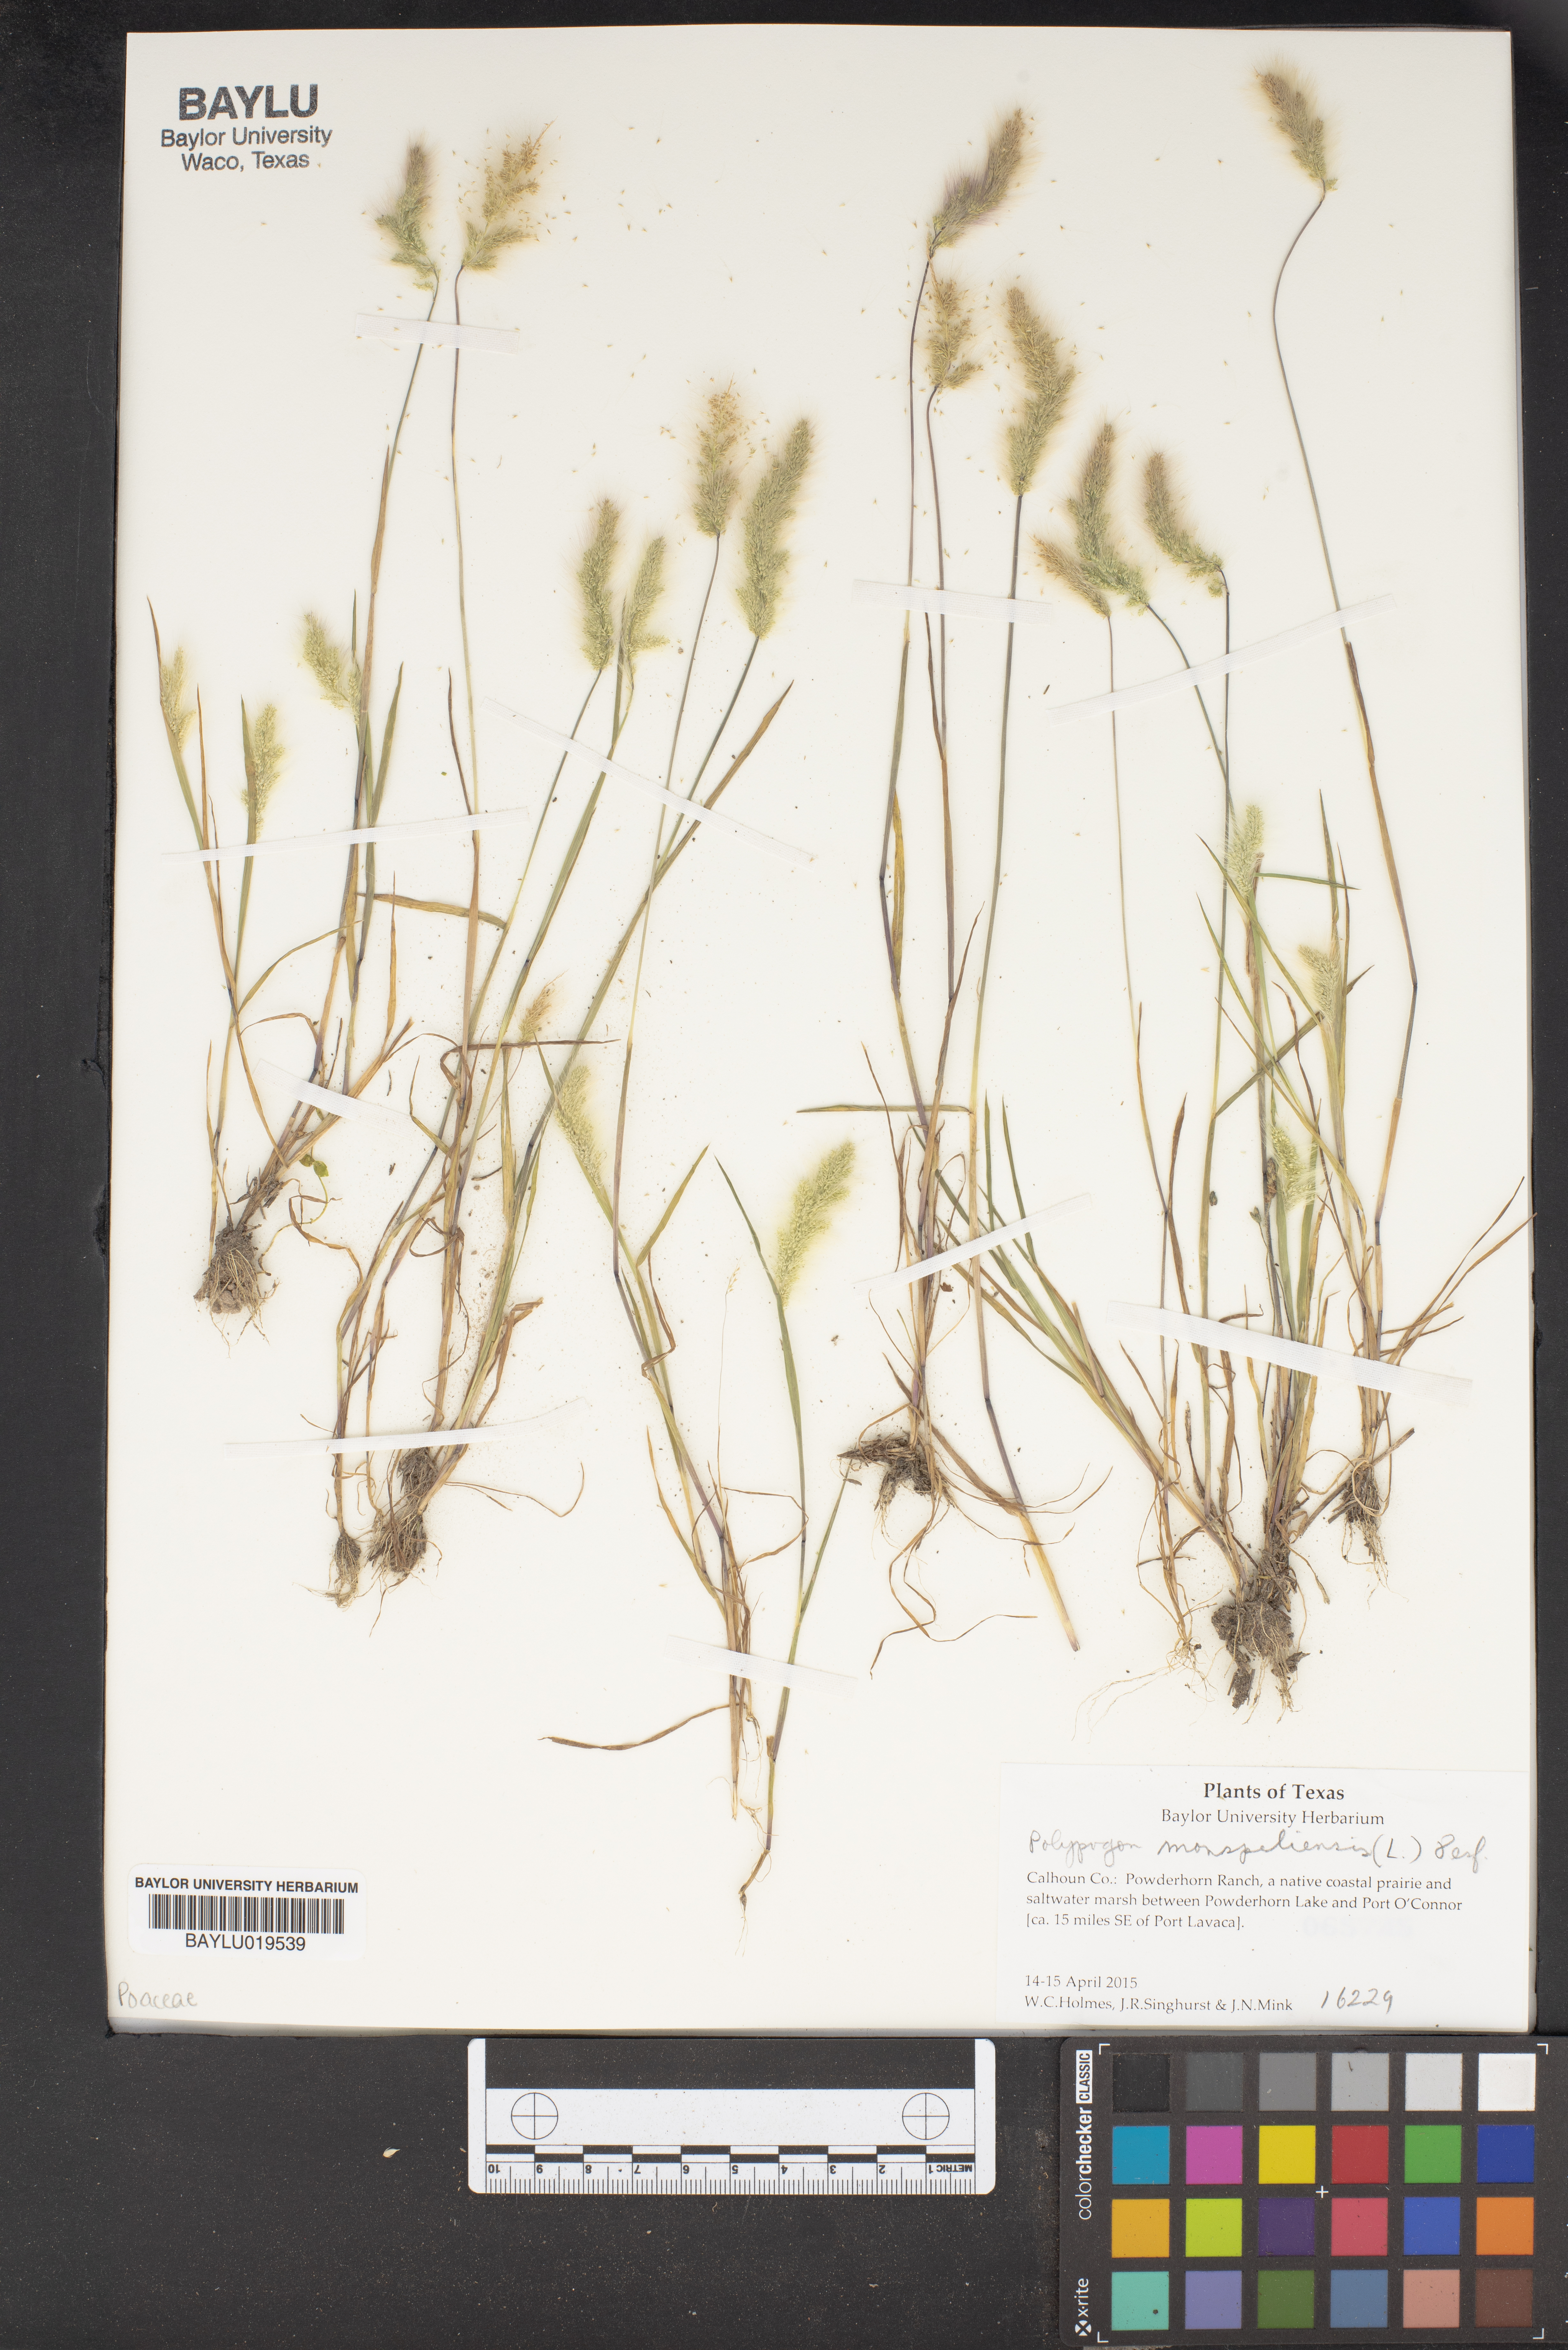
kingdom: Plantae
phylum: Tracheophyta
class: Liliopsida
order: Poales
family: Poaceae
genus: Polypogon
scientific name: Polypogon monspeliensis
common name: Annual rabbitsfoot grass
